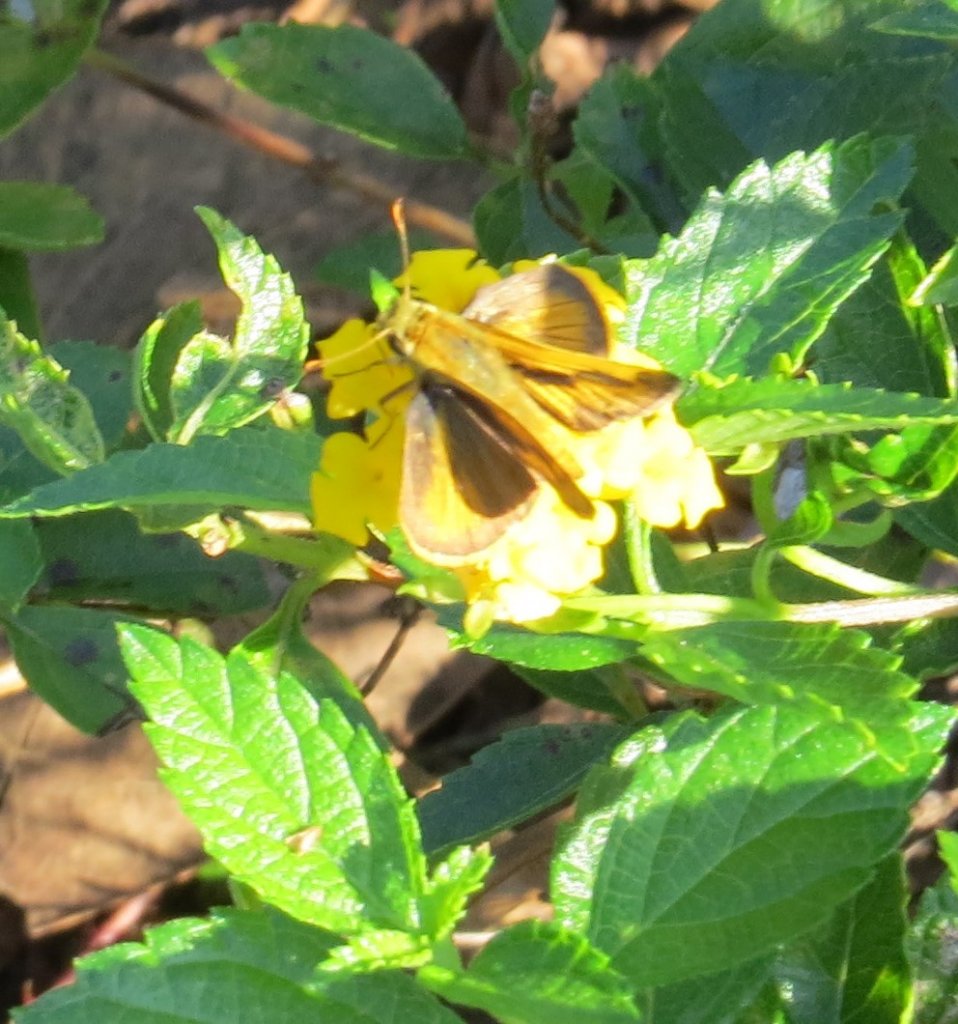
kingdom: Animalia
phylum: Arthropoda
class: Insecta
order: Lepidoptera
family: Hesperiidae
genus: Polites
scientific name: Polites vibex
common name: Whirlabout
